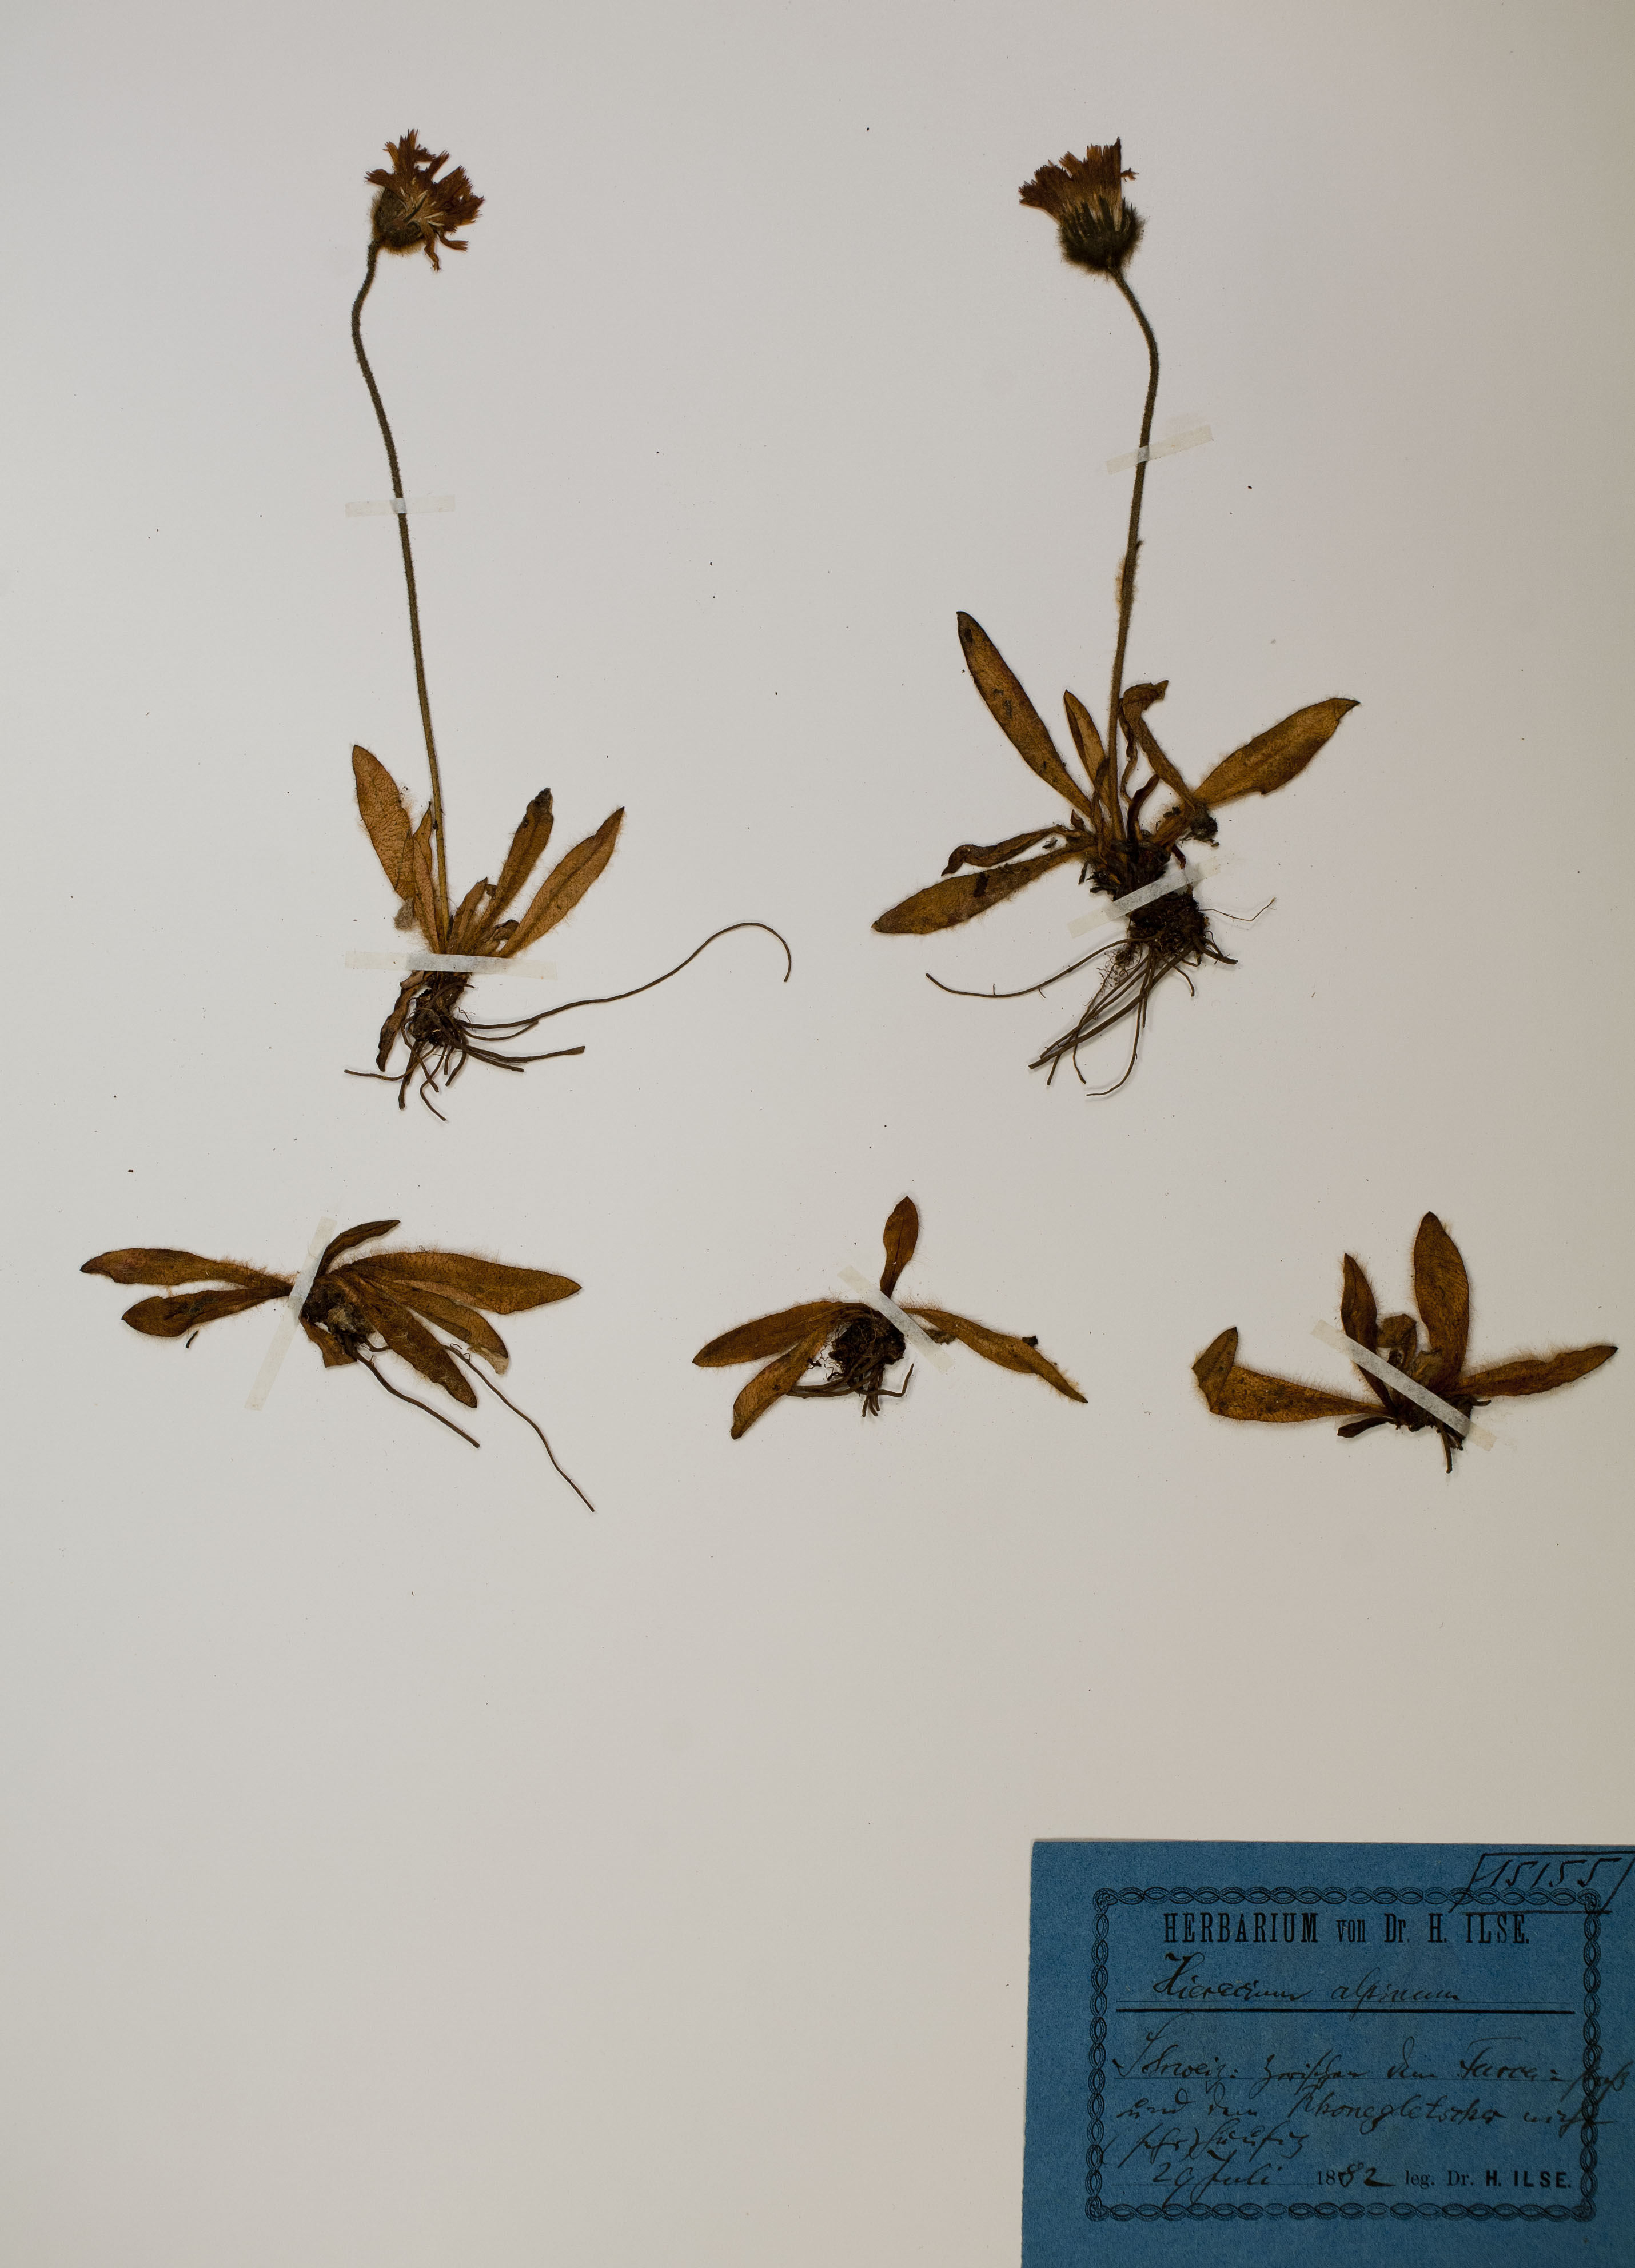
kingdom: Plantae
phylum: Tracheophyta
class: Magnoliopsida
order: Asterales
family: Asteraceae
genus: Hieracium
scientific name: Hieracium alpinum
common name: Alpine hawkweed
